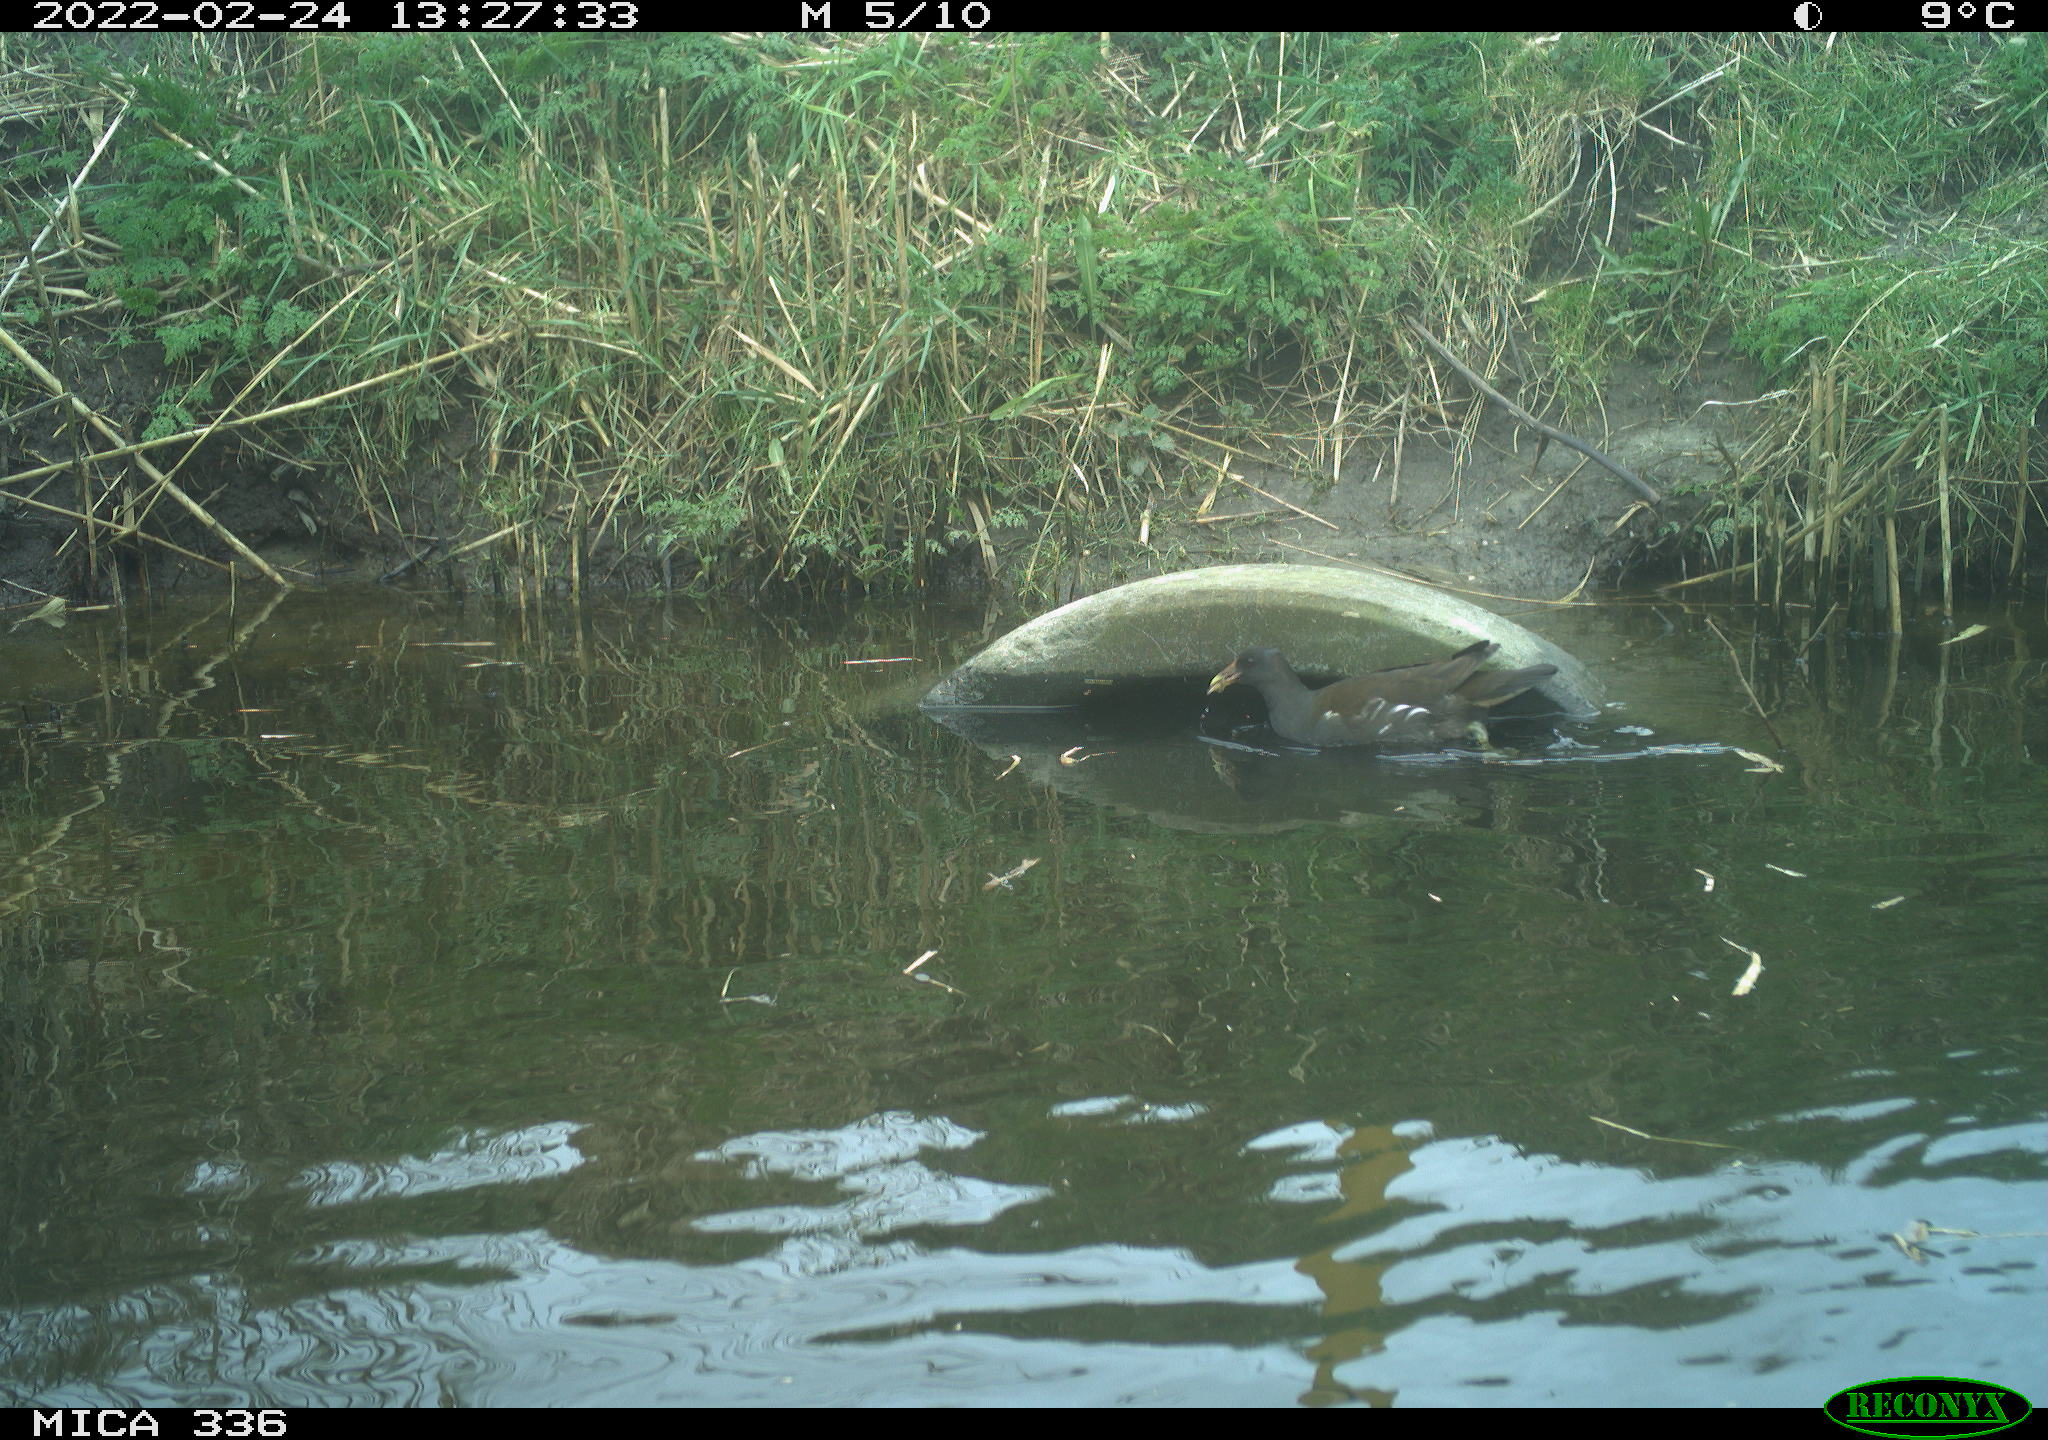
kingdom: Animalia
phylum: Chordata
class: Aves
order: Podicipediformes
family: Podicipedidae
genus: Podiceps
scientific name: Podiceps cristatus
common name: Great crested grebe
